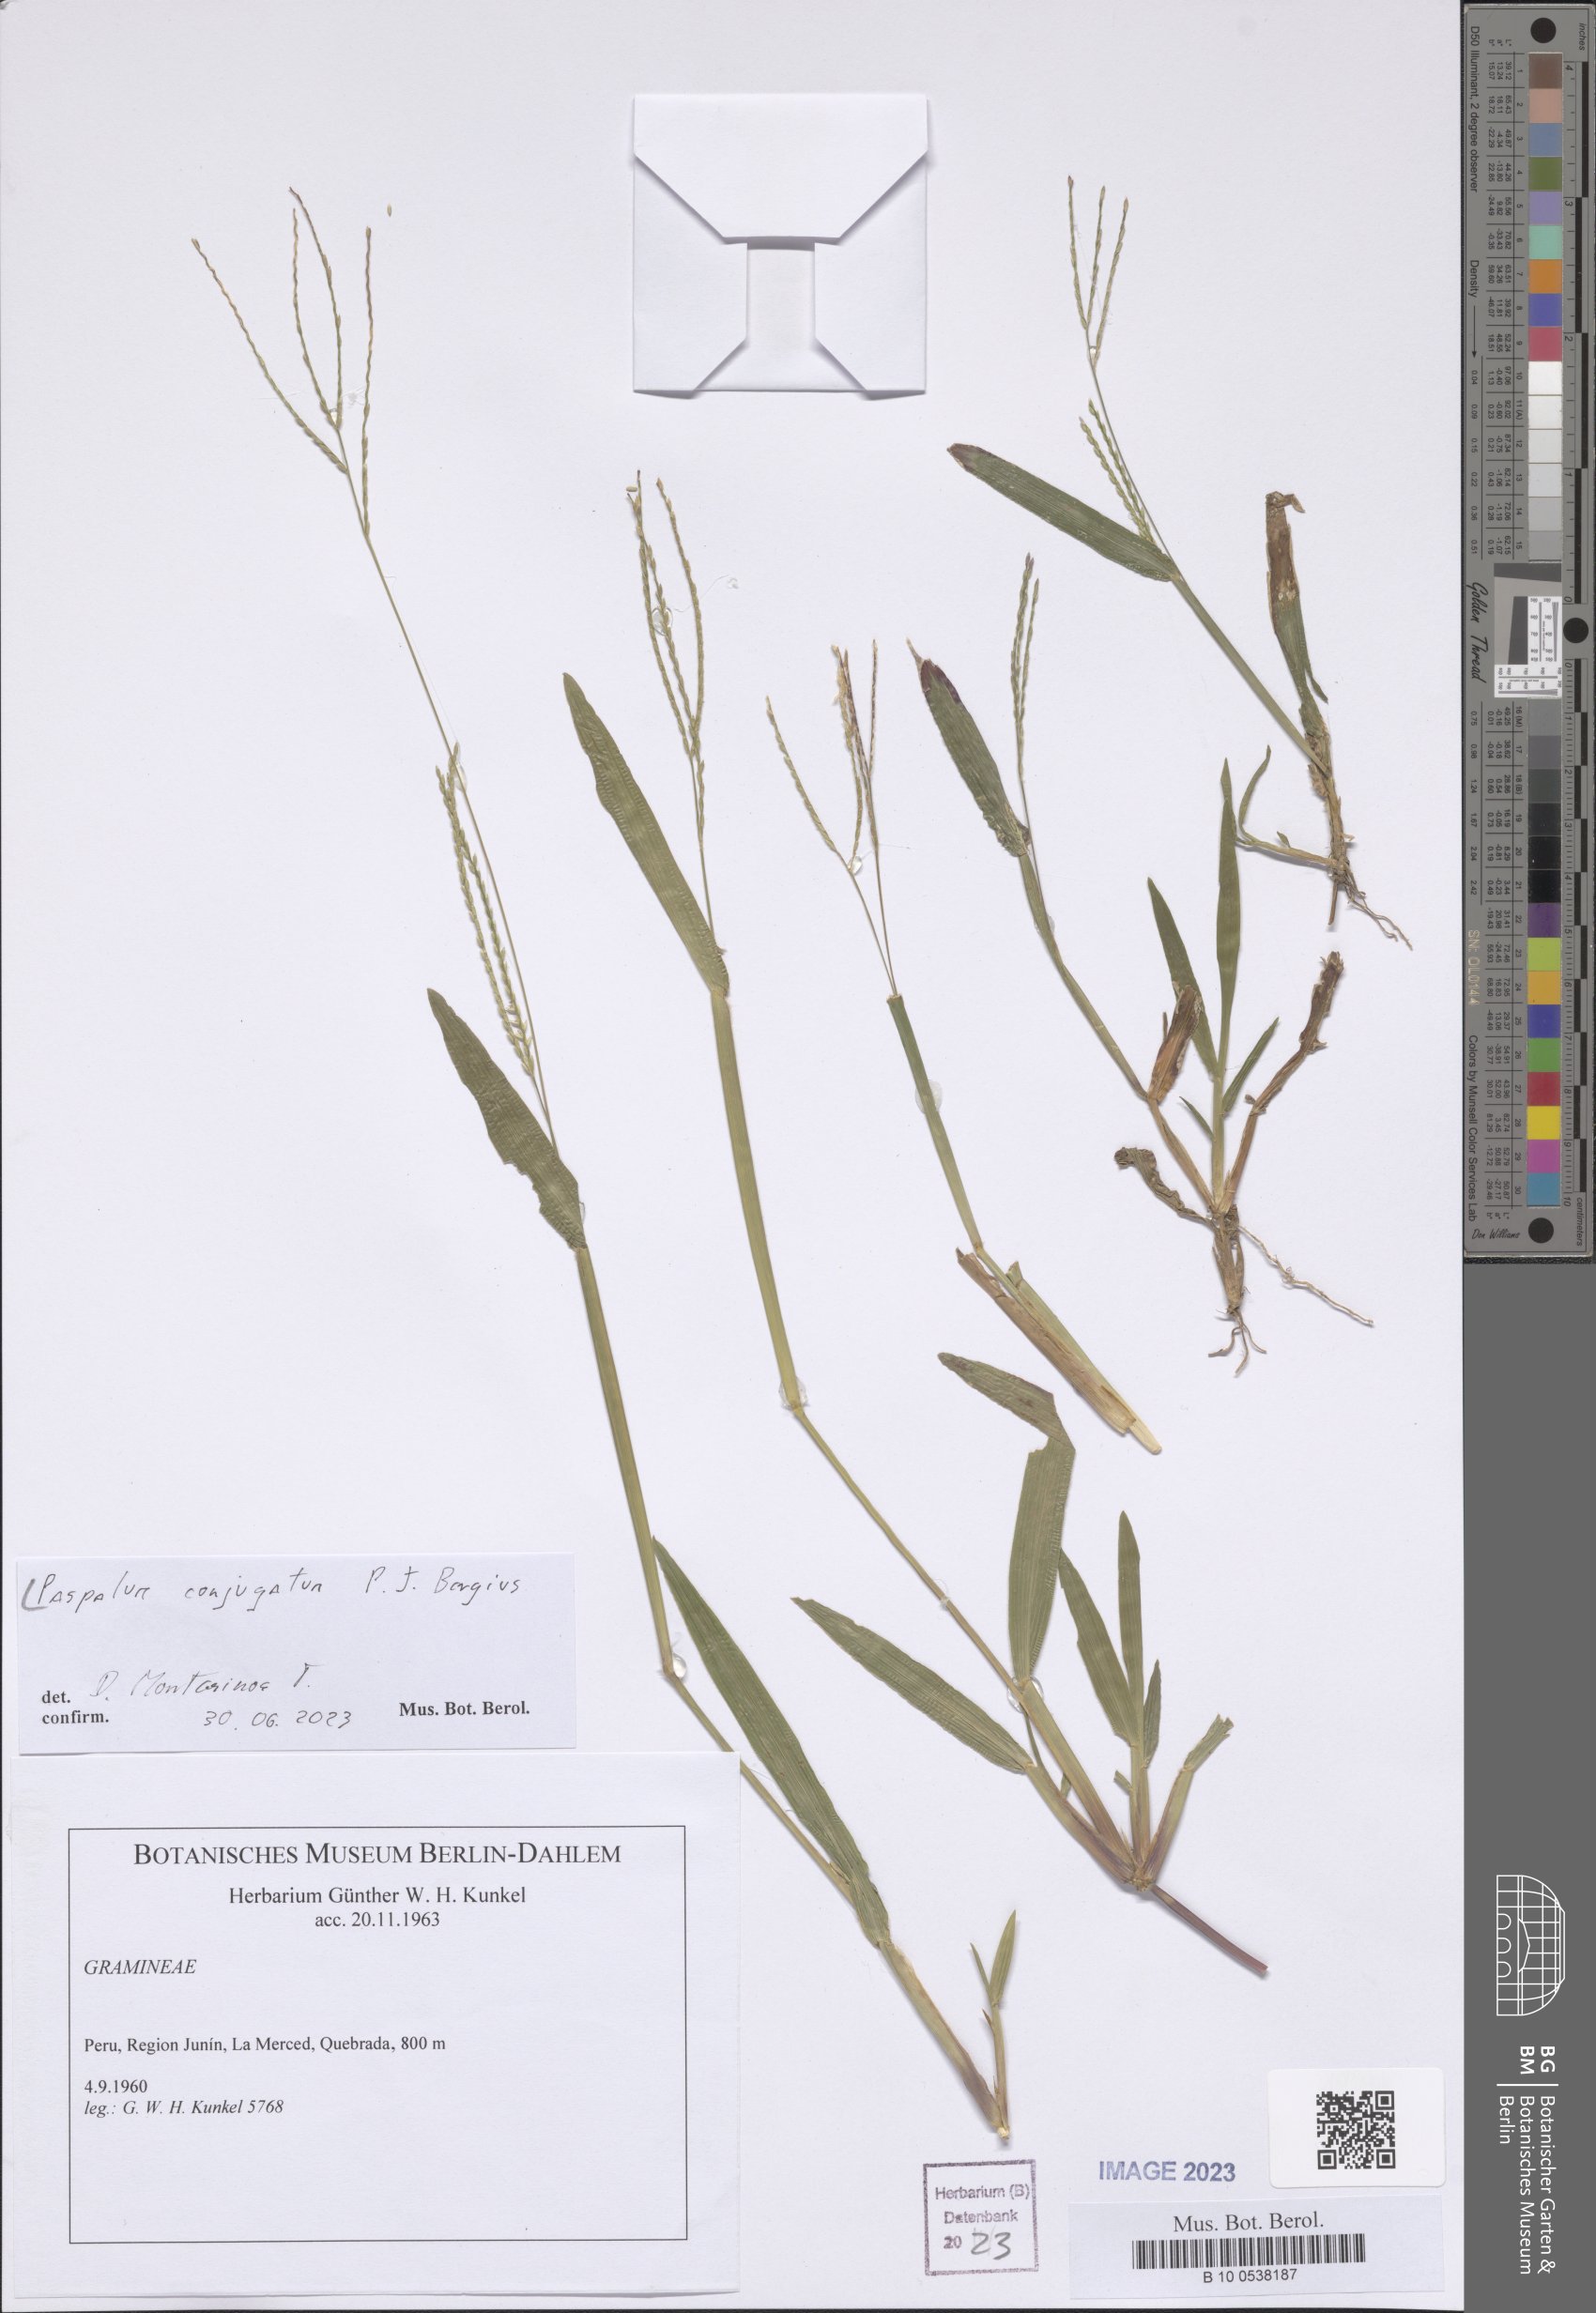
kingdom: Plantae
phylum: Tracheophyta
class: Liliopsida
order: Poales
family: Poaceae
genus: Paspalum
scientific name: Paspalum conjugatum
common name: Hilograss
